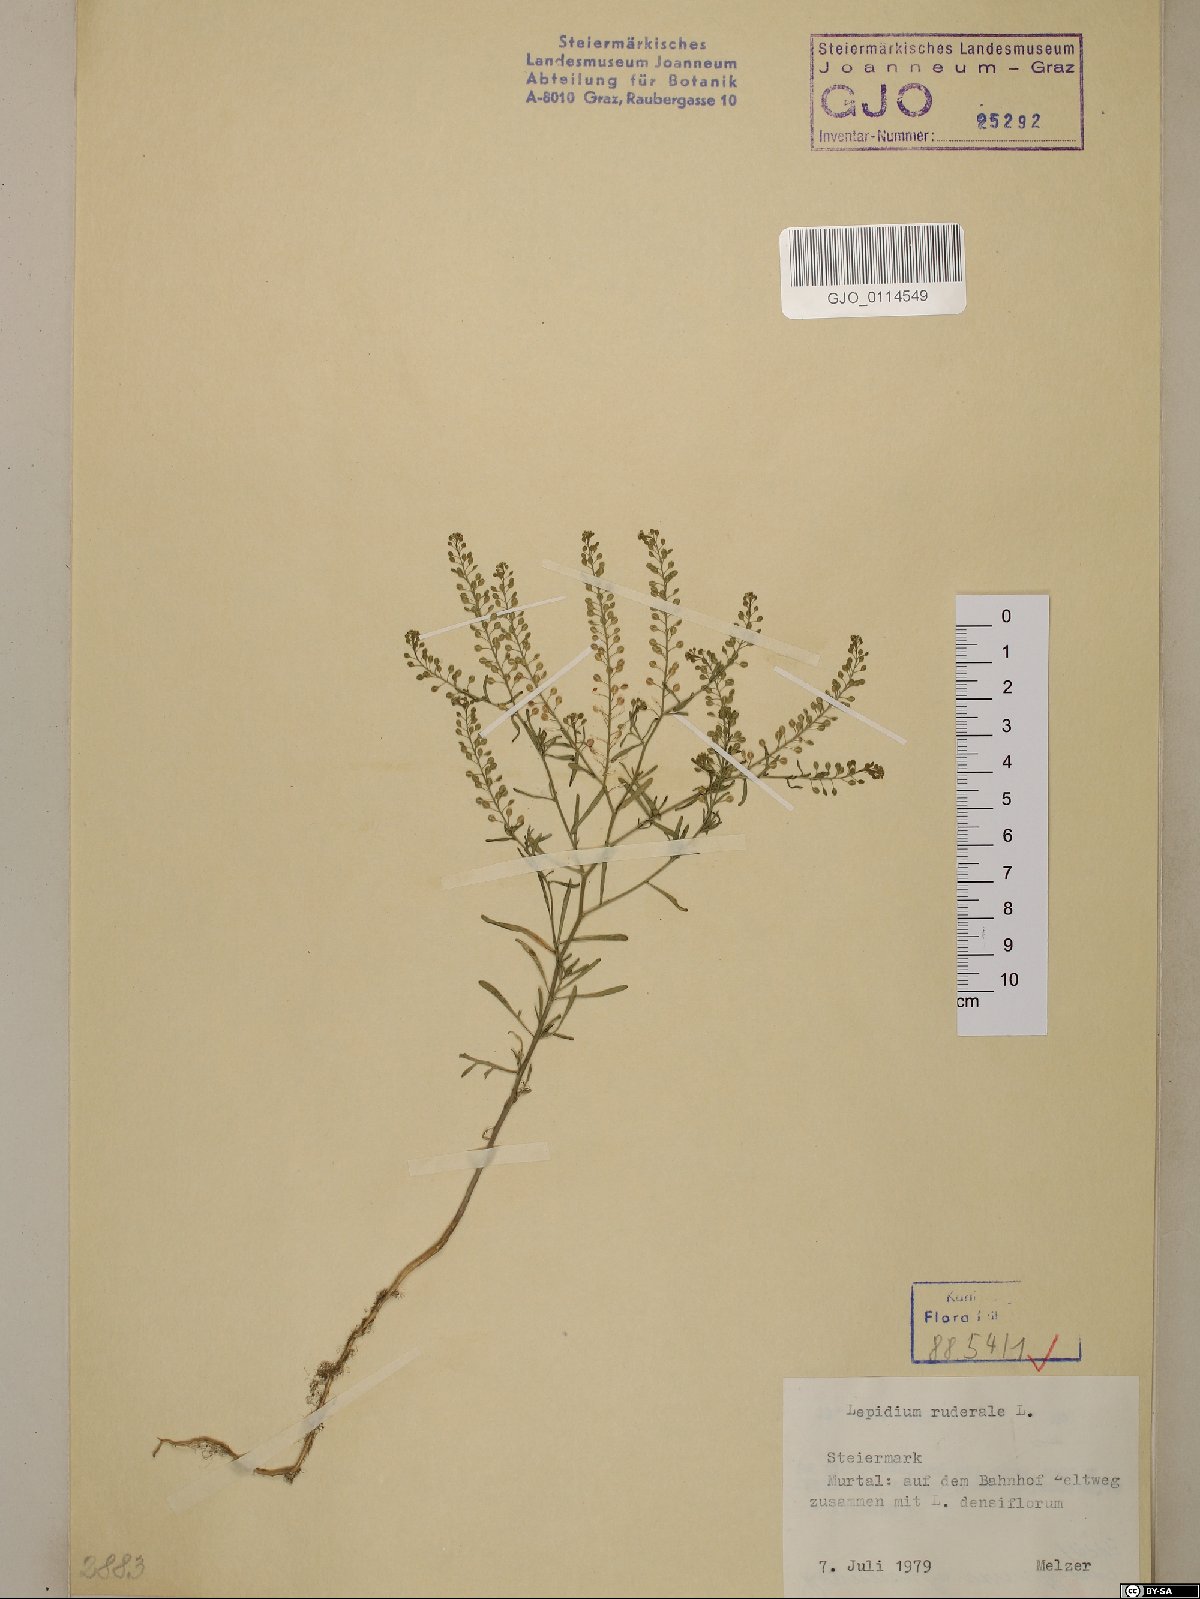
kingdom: Plantae
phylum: Tracheophyta
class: Magnoliopsida
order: Brassicales
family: Brassicaceae
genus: Lepidium
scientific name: Lepidium ruderale
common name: Narrow-leaved pepperwort
